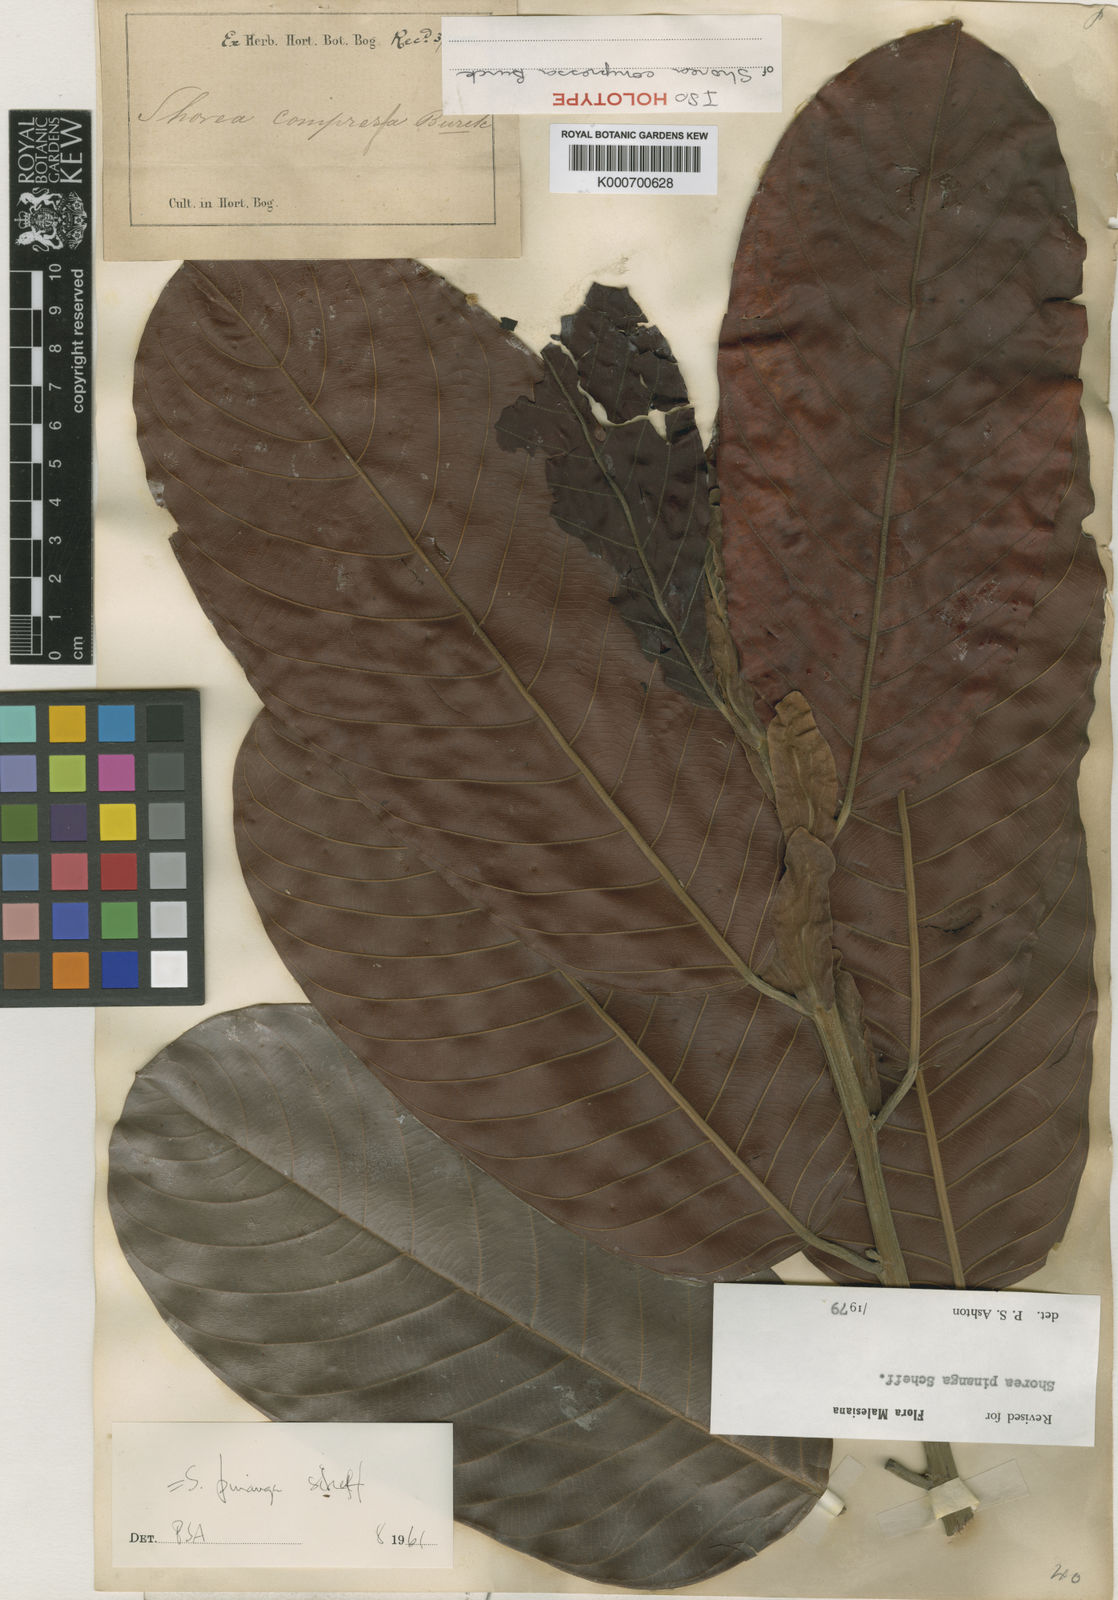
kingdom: Plantae
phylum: Tracheophyta
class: Magnoliopsida
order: Malvales
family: Dipterocarpaceae
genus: Shorea
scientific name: Shorea pinanga
